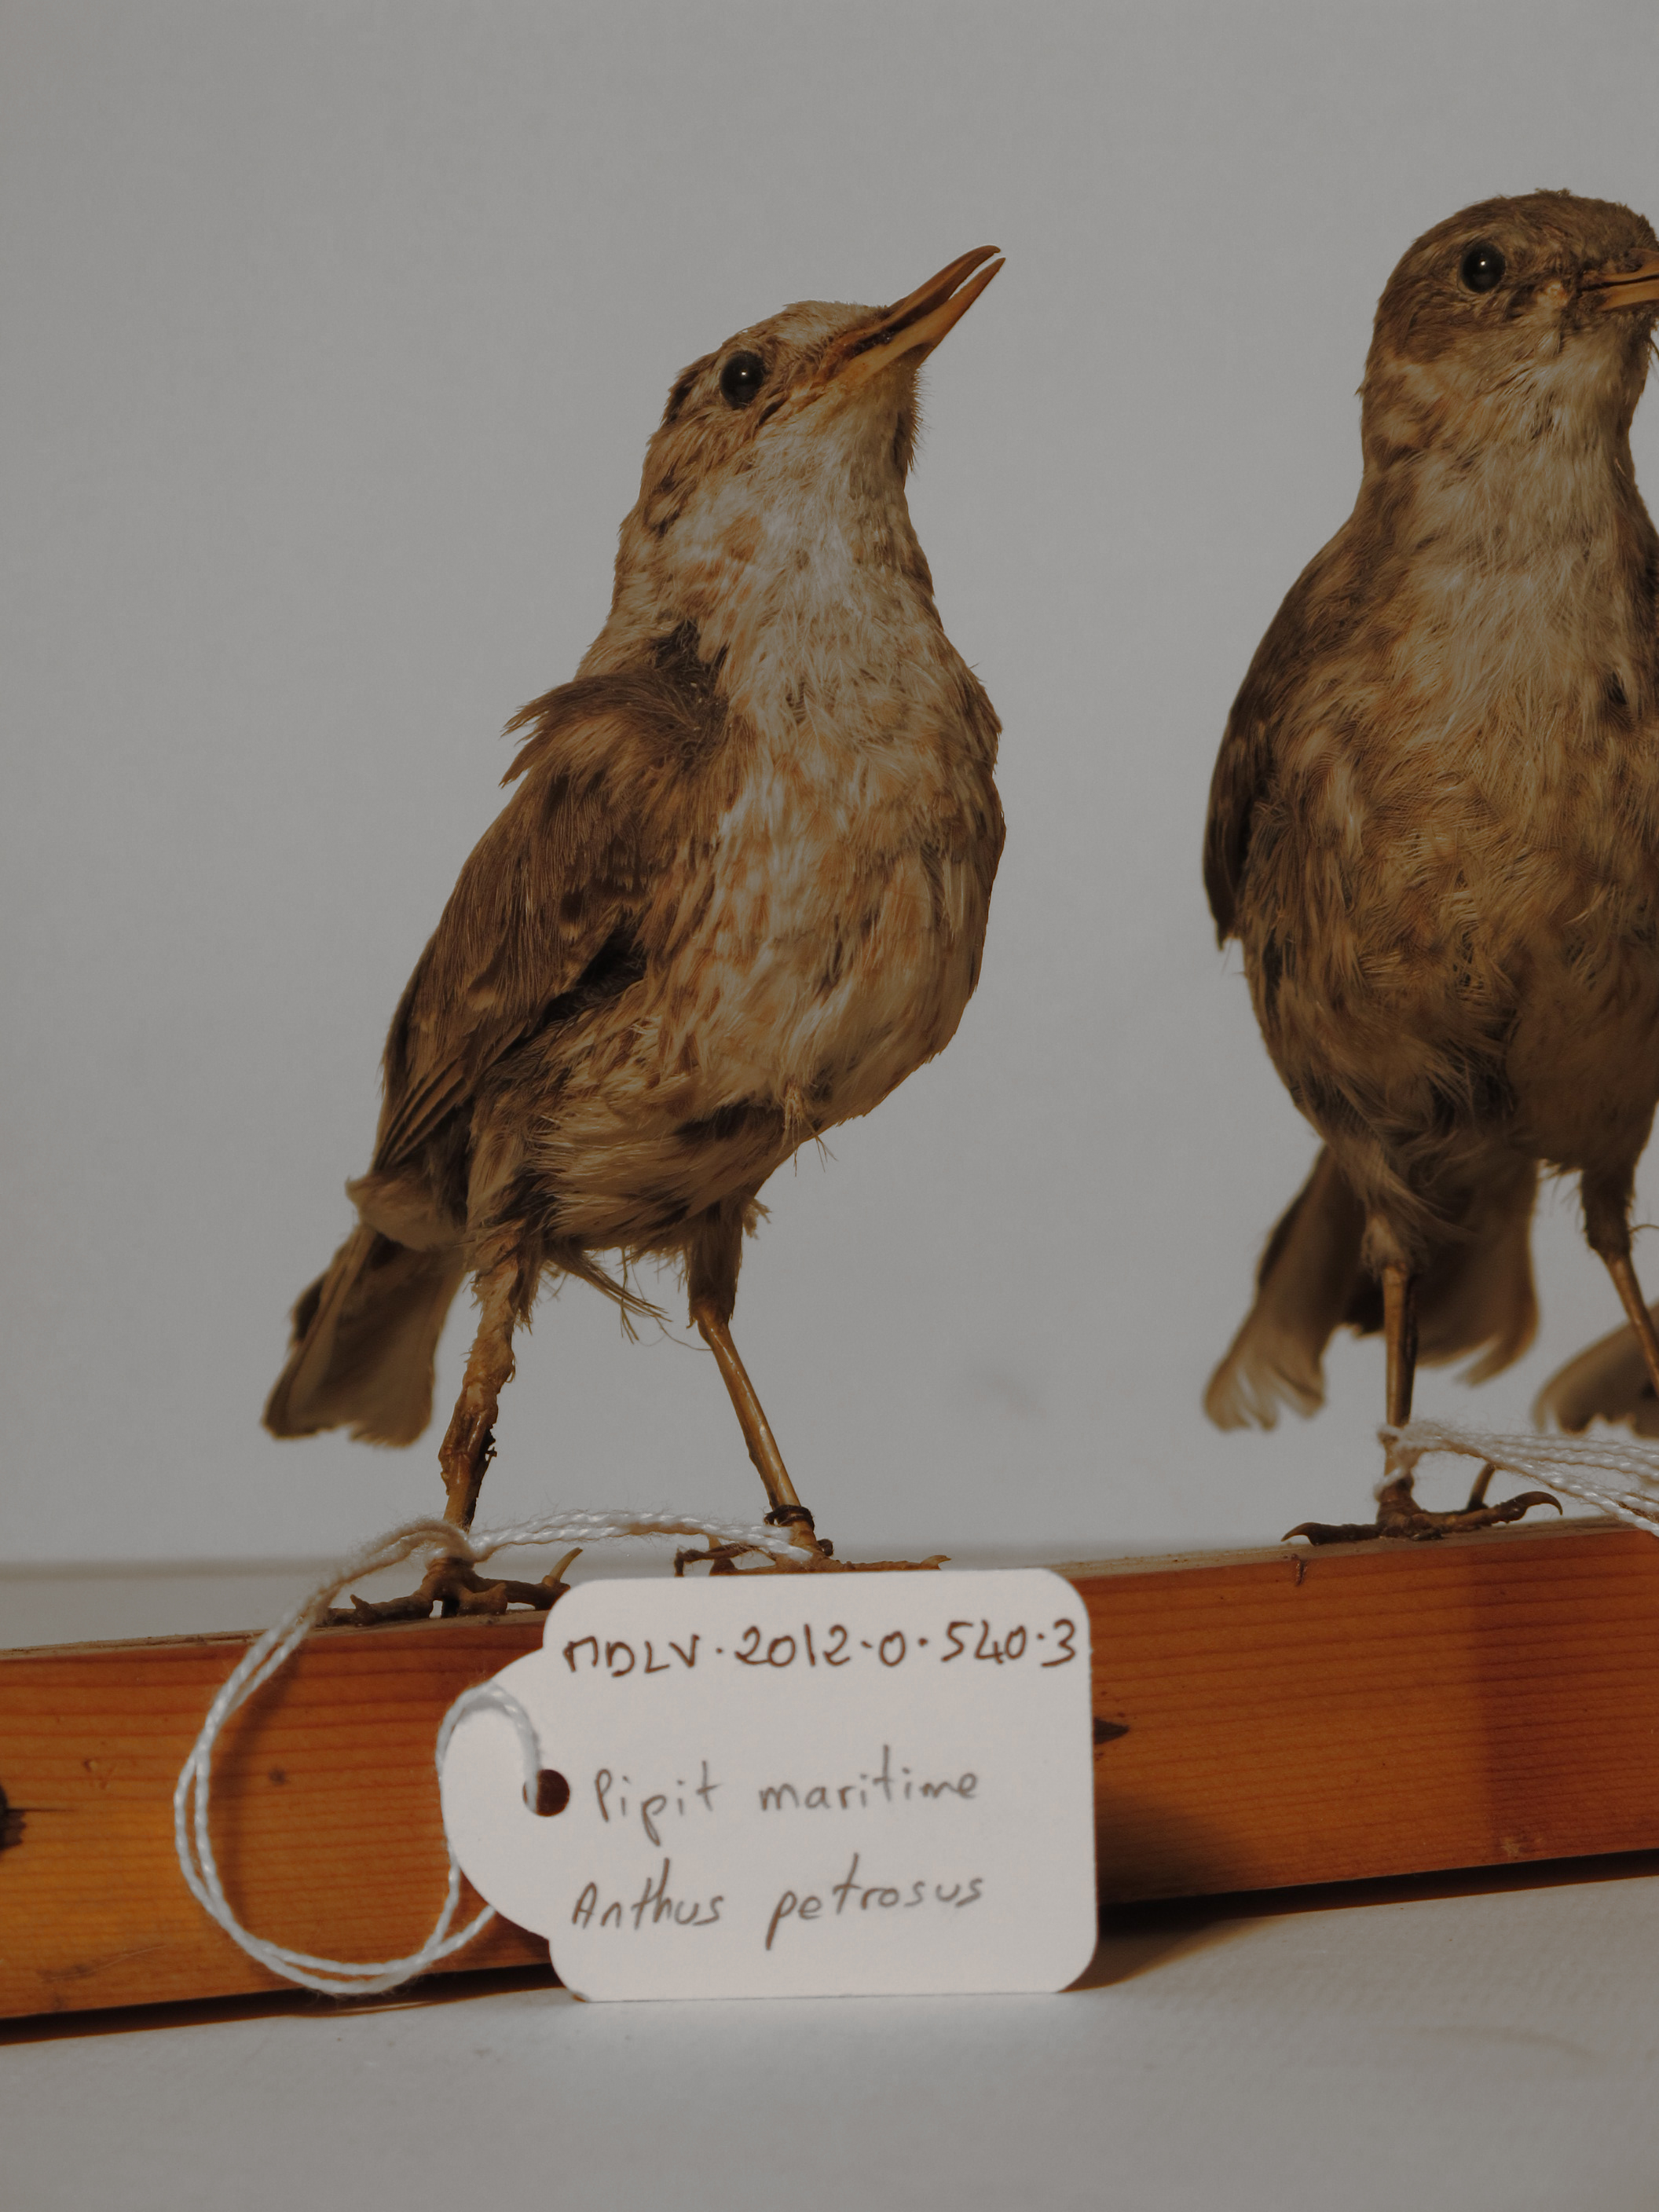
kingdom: Animalia
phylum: Chordata
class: Aves
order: Passeriformes
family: Motacillidae
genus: Anthus
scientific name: Anthus petrosus
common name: Rock Pipit
